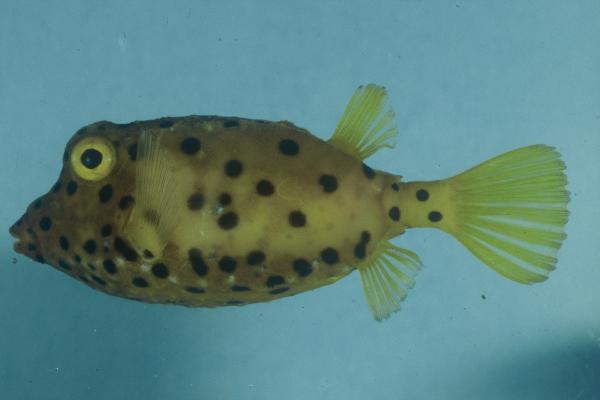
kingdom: Animalia
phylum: Chordata
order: Tetraodontiformes
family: Ostraciidae
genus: Ostracion
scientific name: Ostracion cubicus
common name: Cube trunkfish
